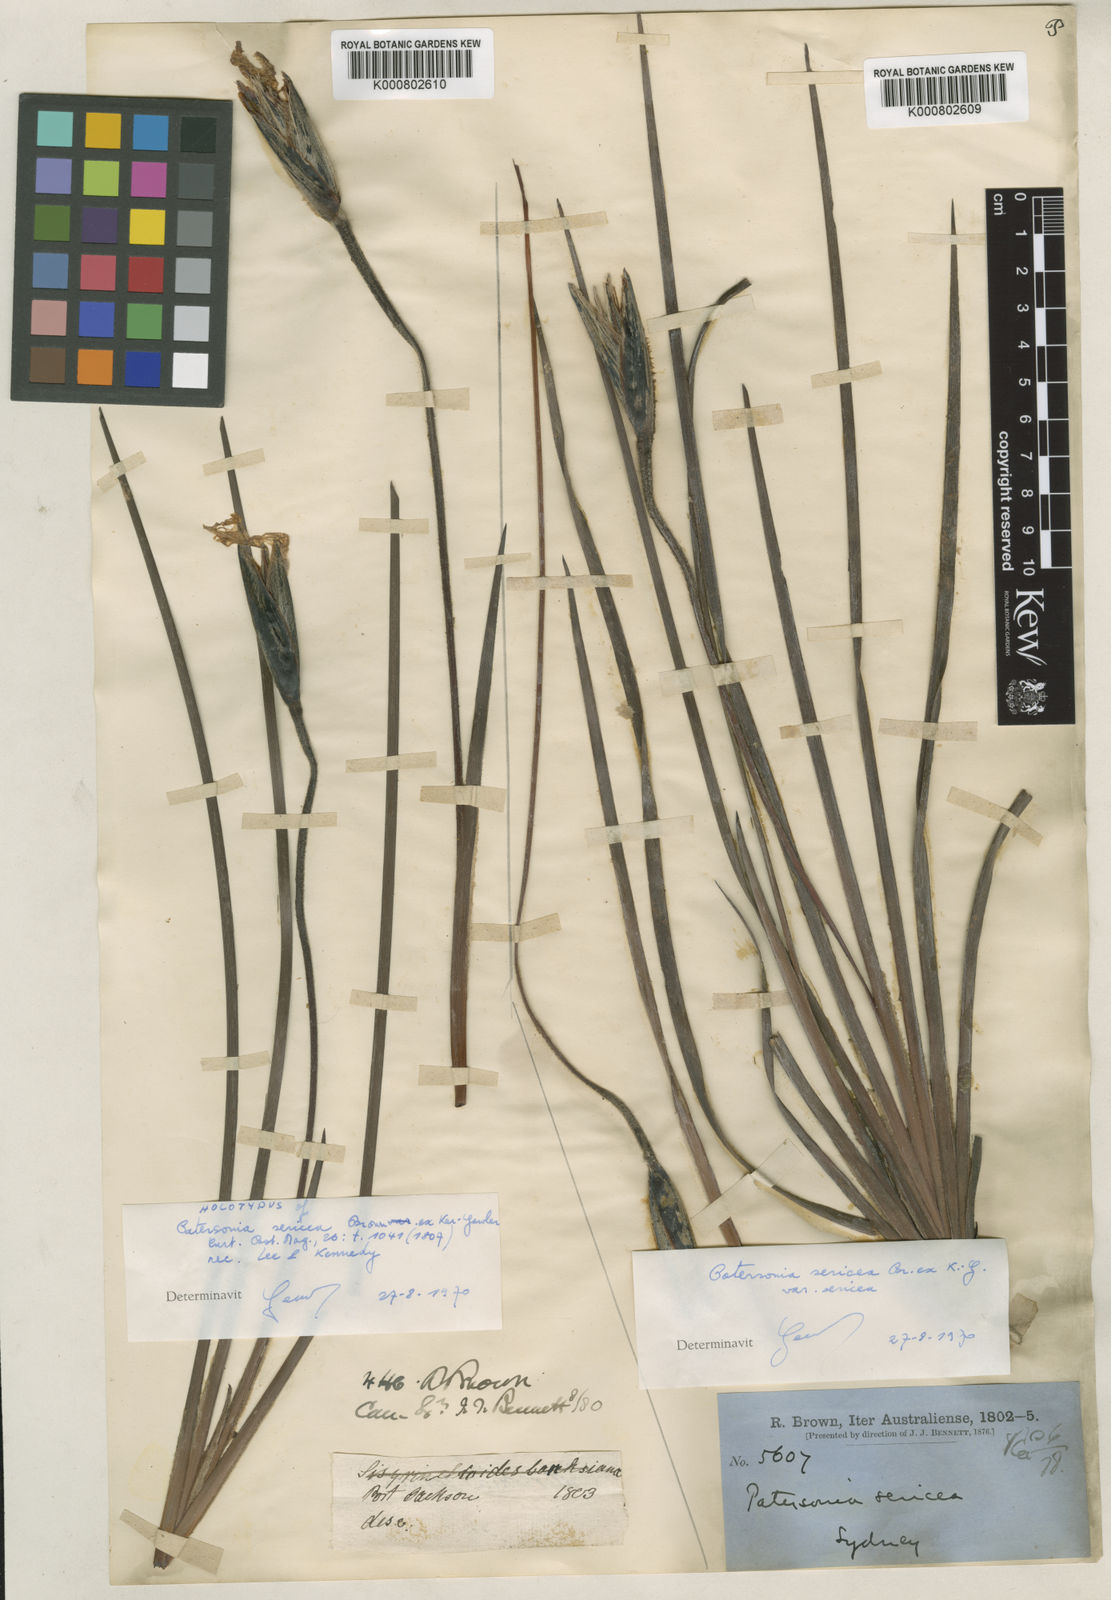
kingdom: Plantae
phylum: Tracheophyta
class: Liliopsida
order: Asparagales
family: Iridaceae
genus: Patersonia
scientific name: Patersonia sericea
